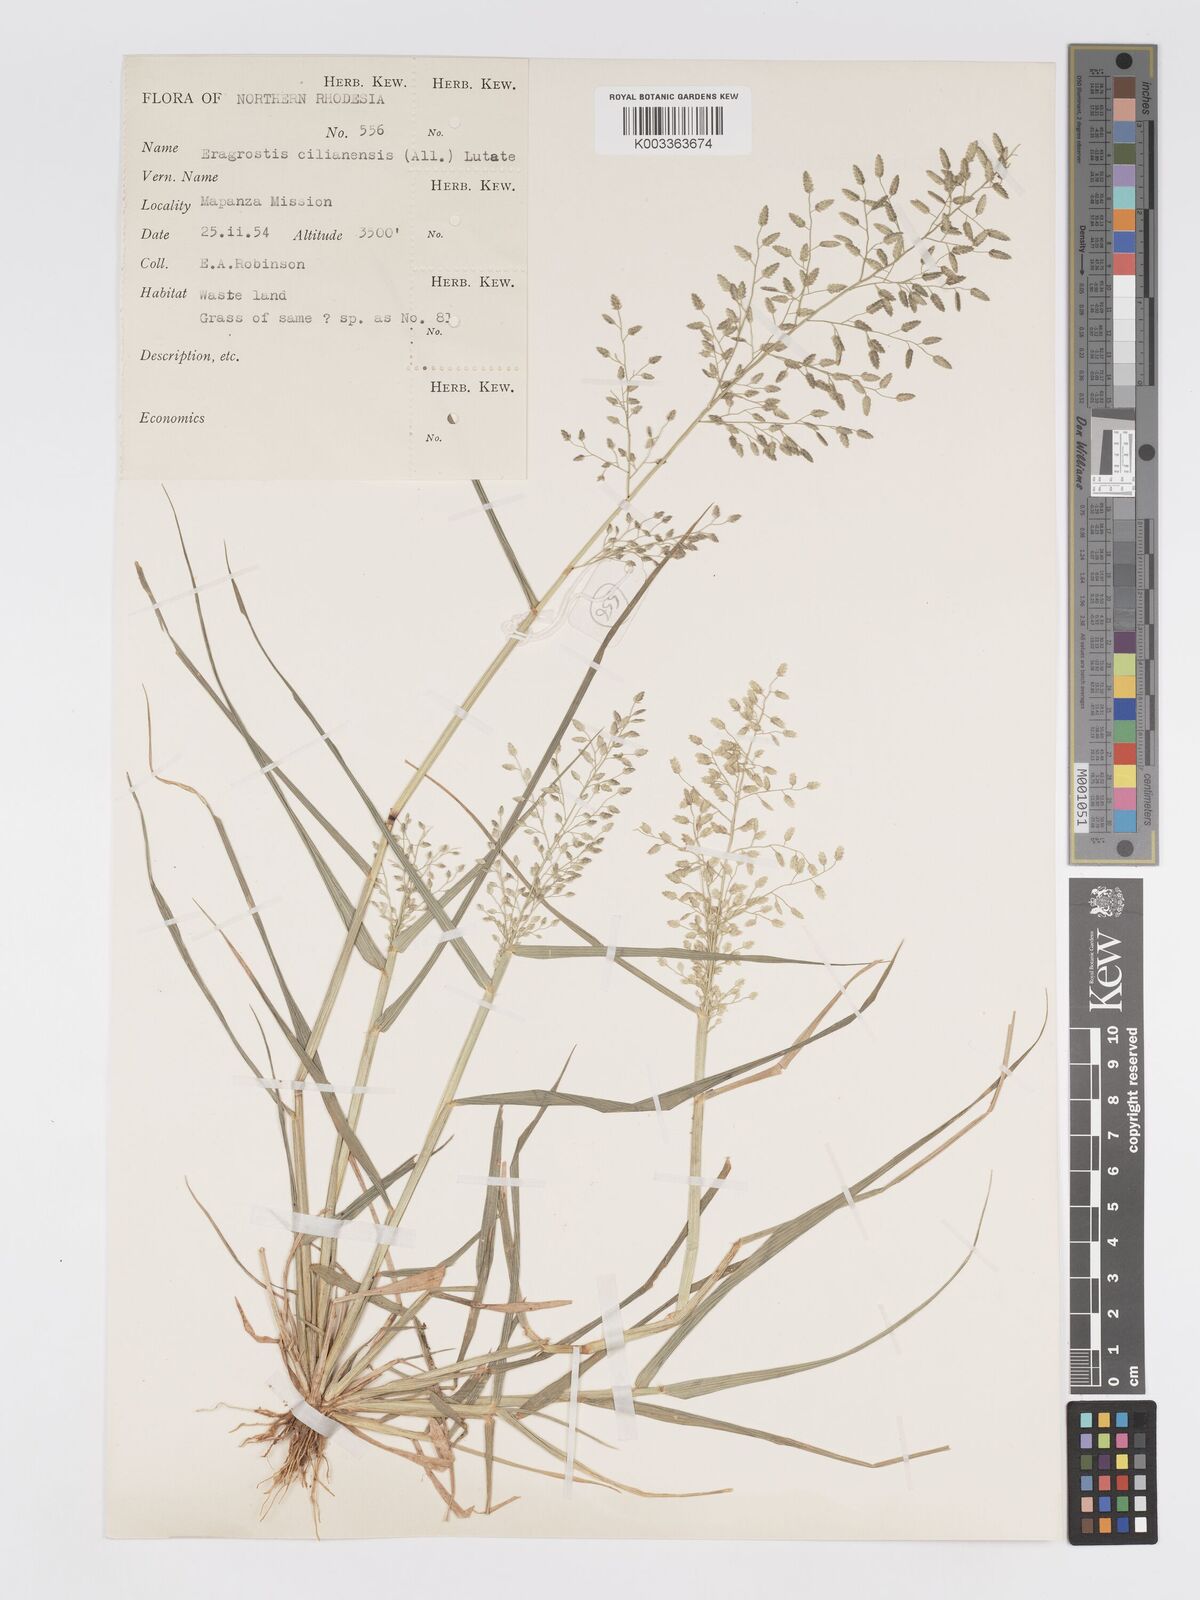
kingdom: Plantae
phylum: Tracheophyta
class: Liliopsida
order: Poales
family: Poaceae
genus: Eragrostis
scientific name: Eragrostis cilianensis
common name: Stinkgrass
